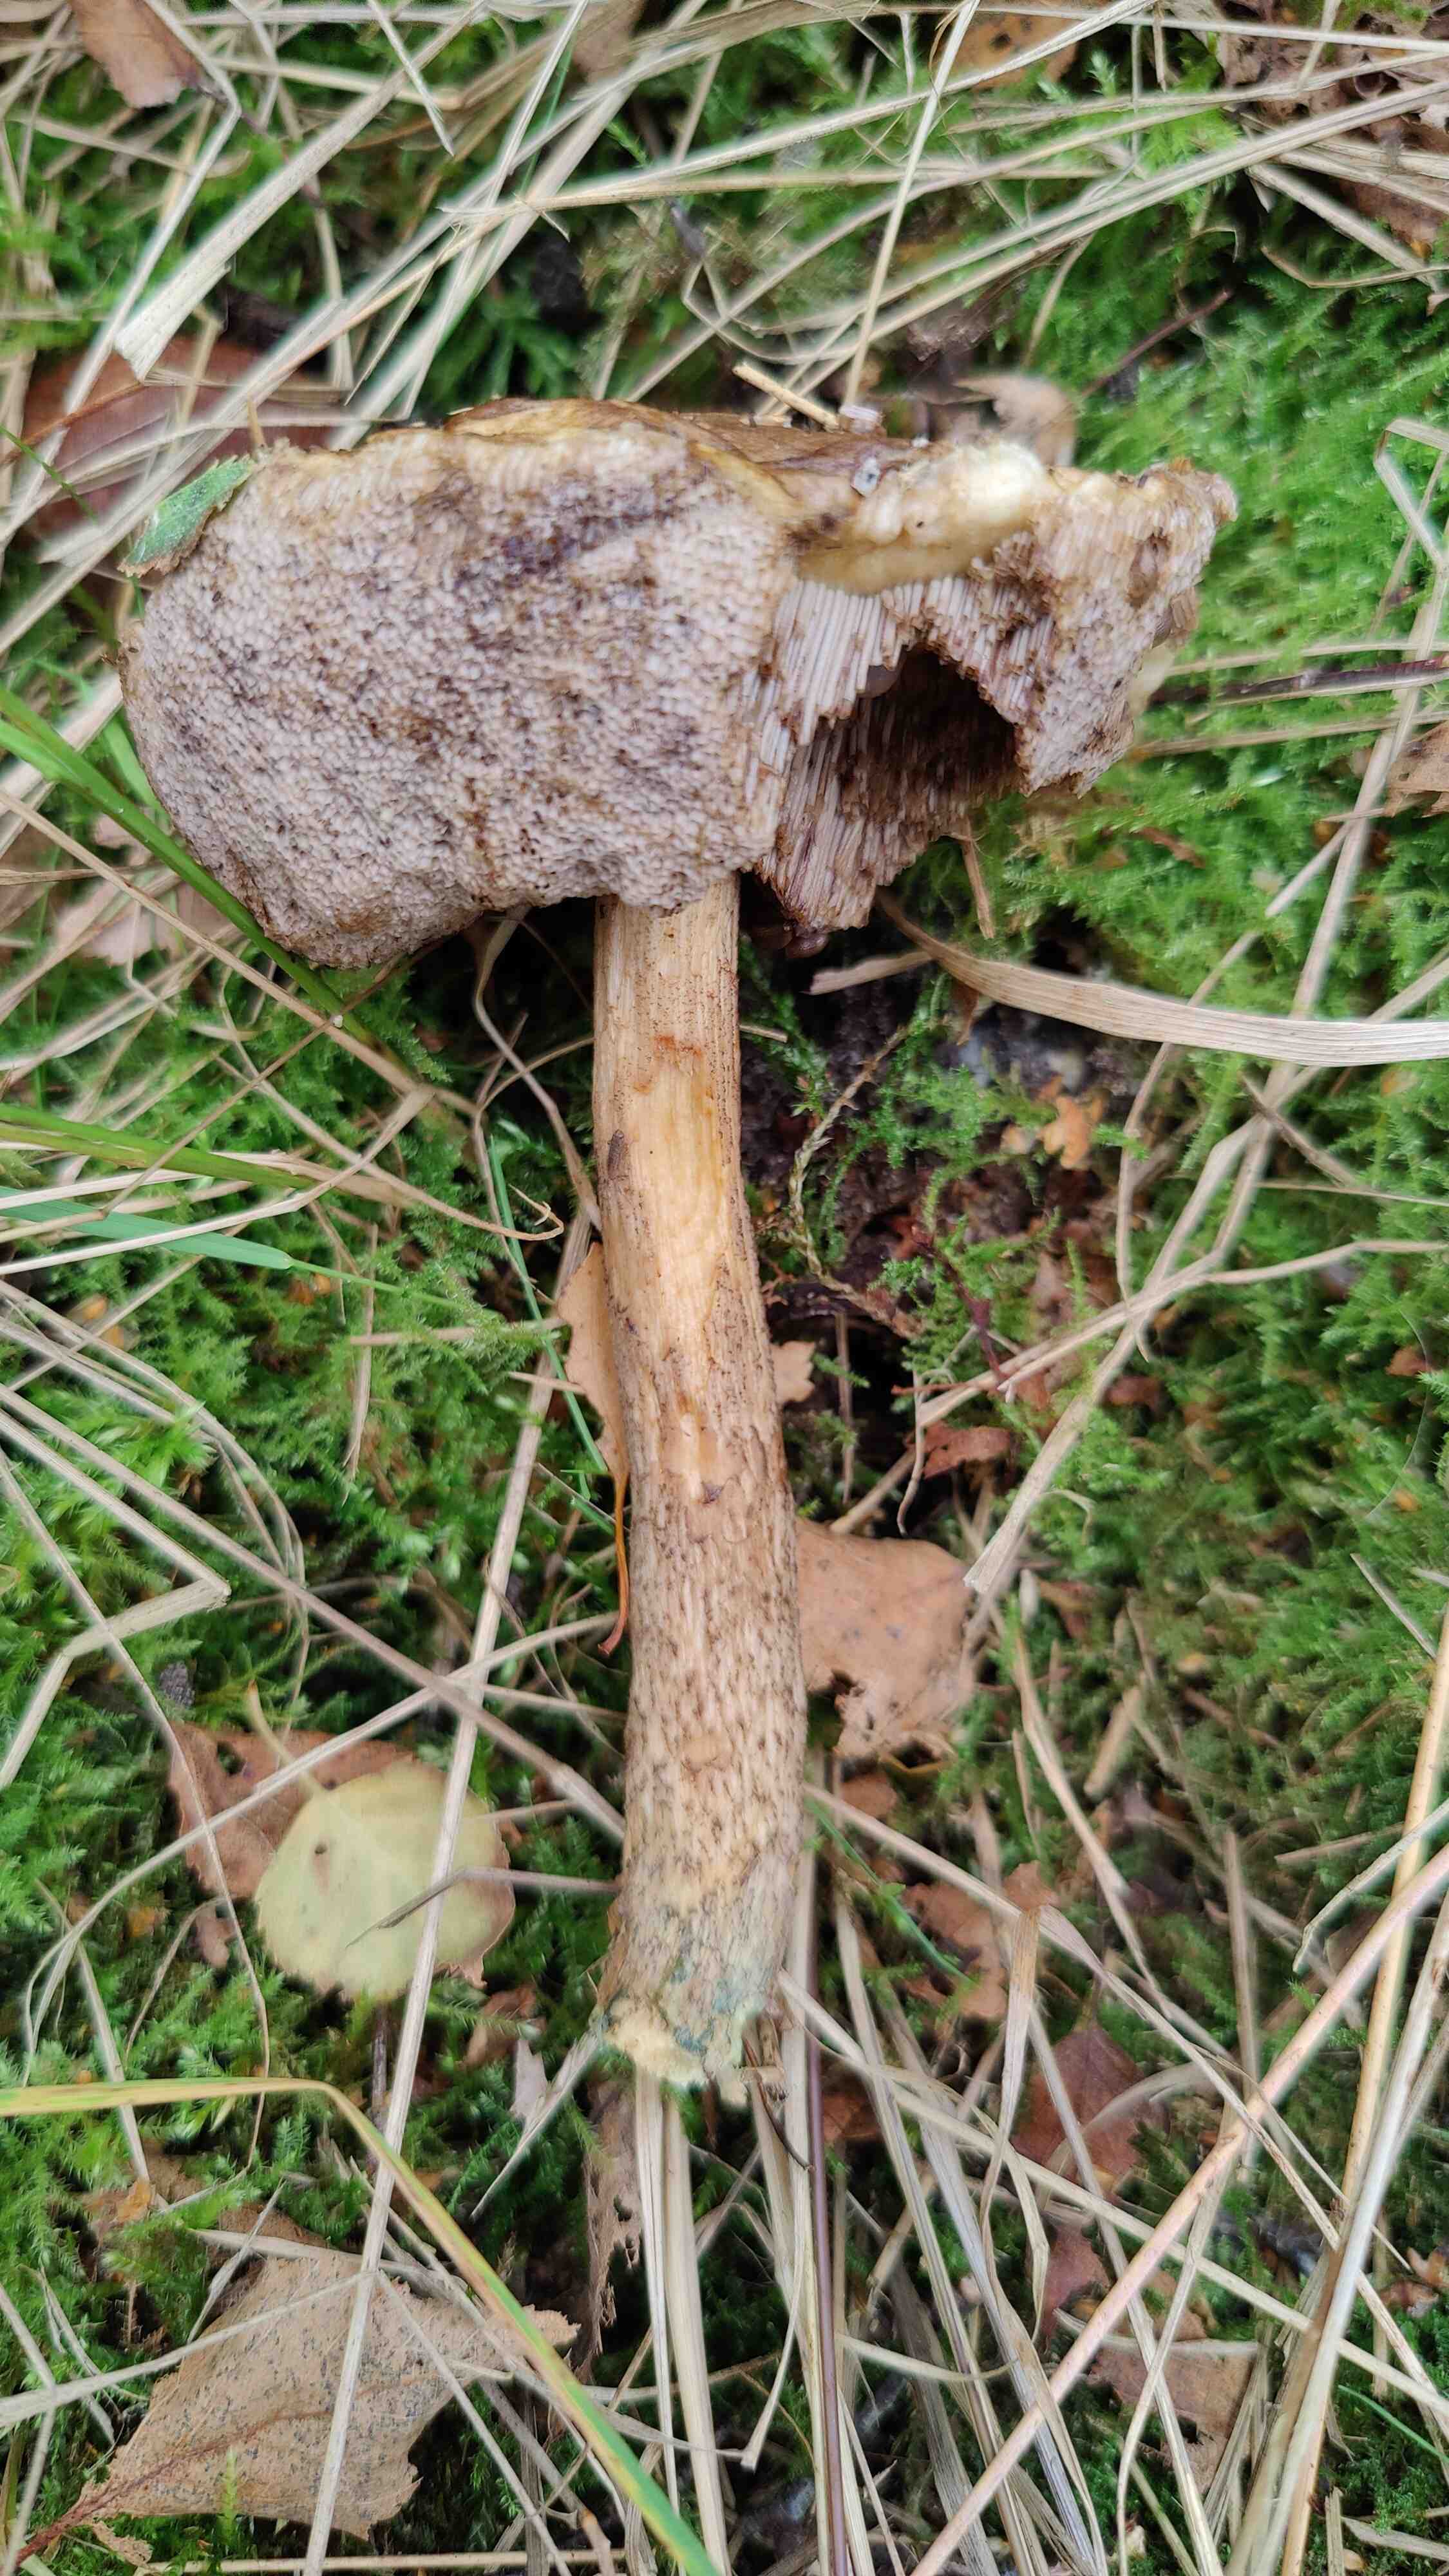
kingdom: Fungi
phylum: Basidiomycota
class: Agaricomycetes
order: Boletales
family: Boletaceae
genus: Leccinum
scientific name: Leccinum cyaneobasileucum
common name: almindelig skælrørhat
